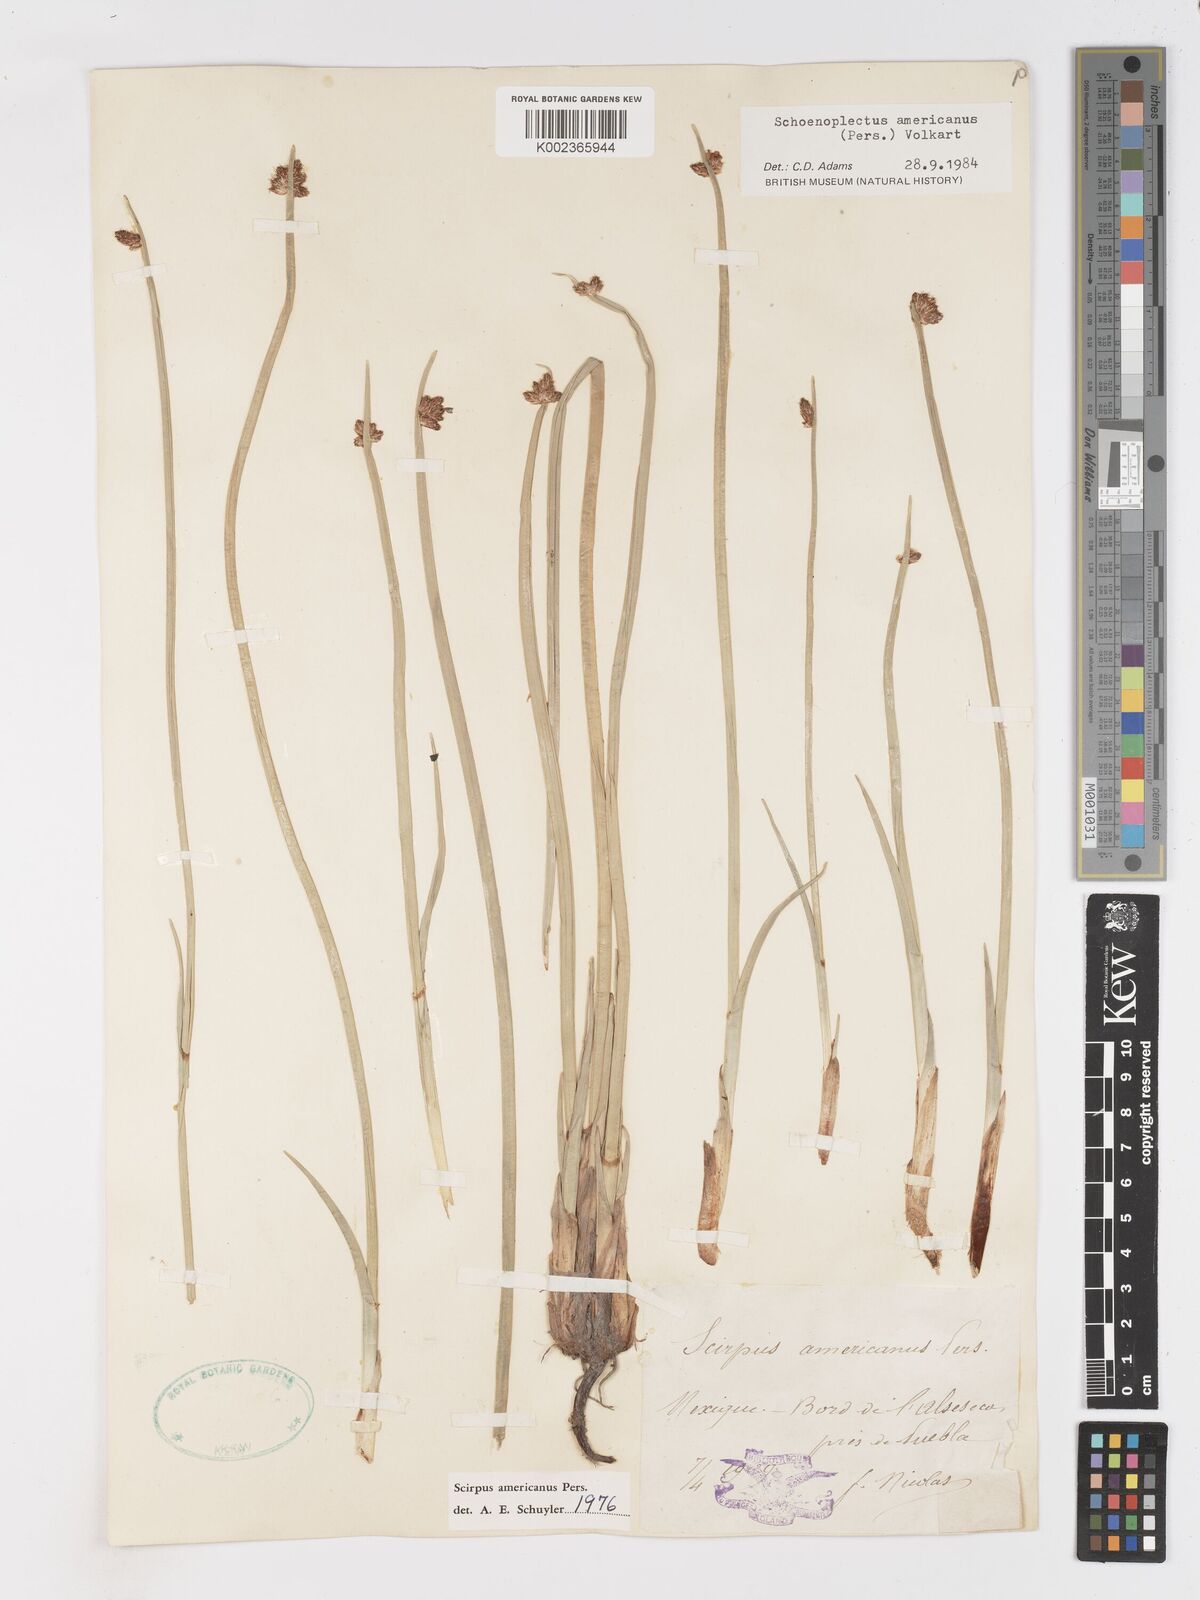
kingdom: Plantae
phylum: Tracheophyta
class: Liliopsida
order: Poales
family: Cyperaceae
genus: Schoenoplectus
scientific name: Schoenoplectus americanus
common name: American three-square bulrush
